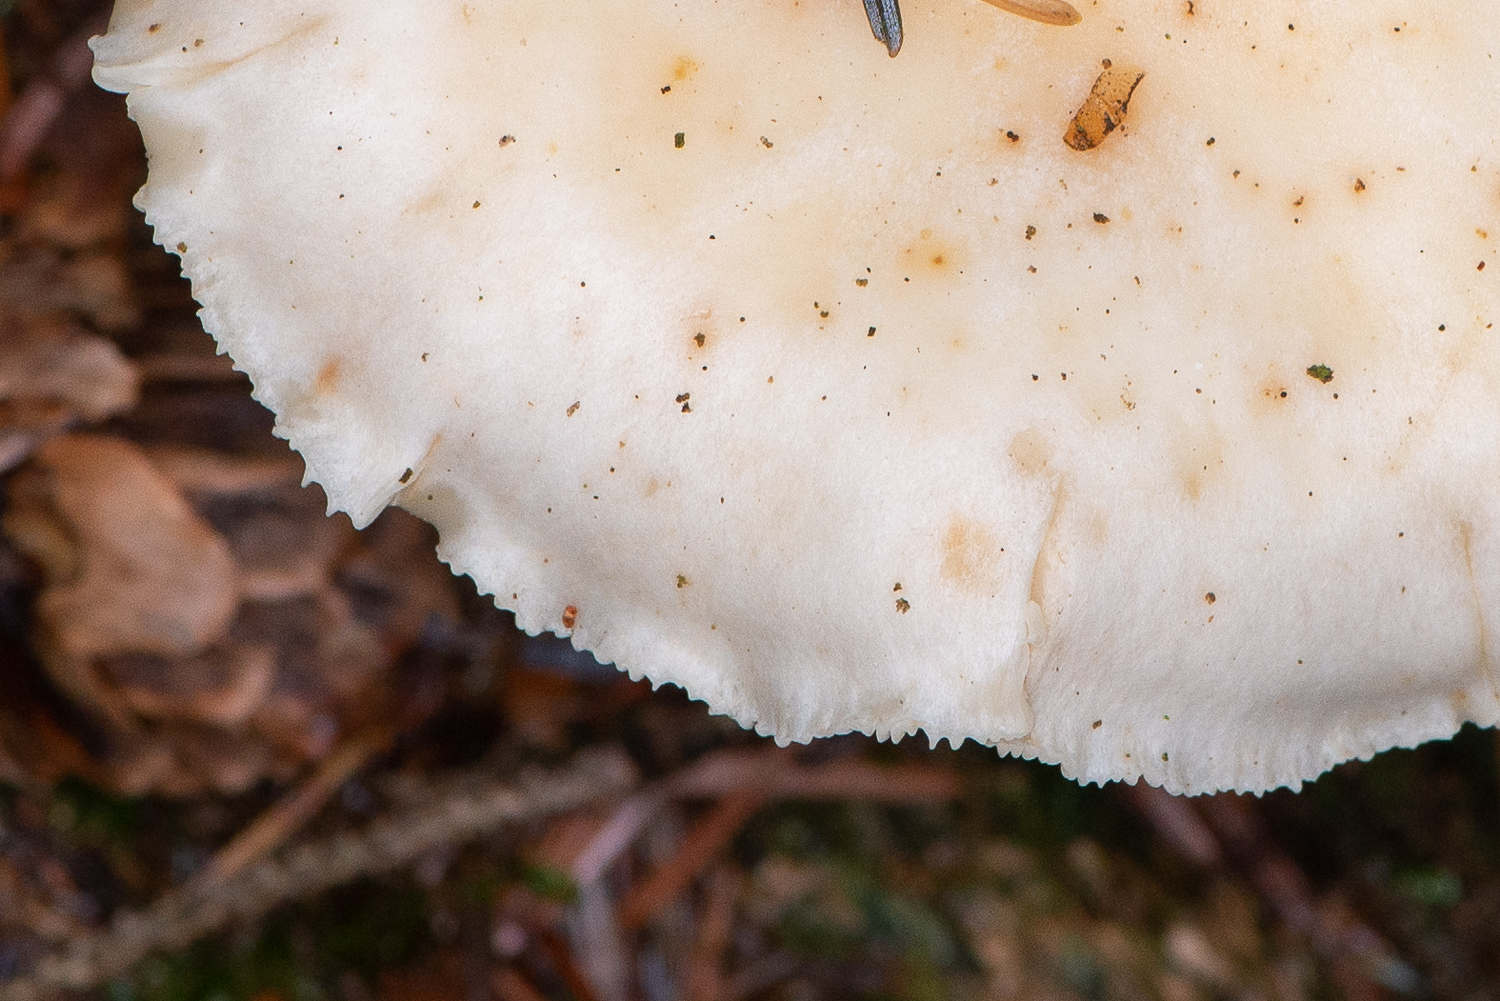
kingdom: Fungi
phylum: Basidiomycota
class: Agaricomycetes
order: Agaricales
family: Tricholomataceae
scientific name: Tricholomataceae
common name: ridderhatfamilien
